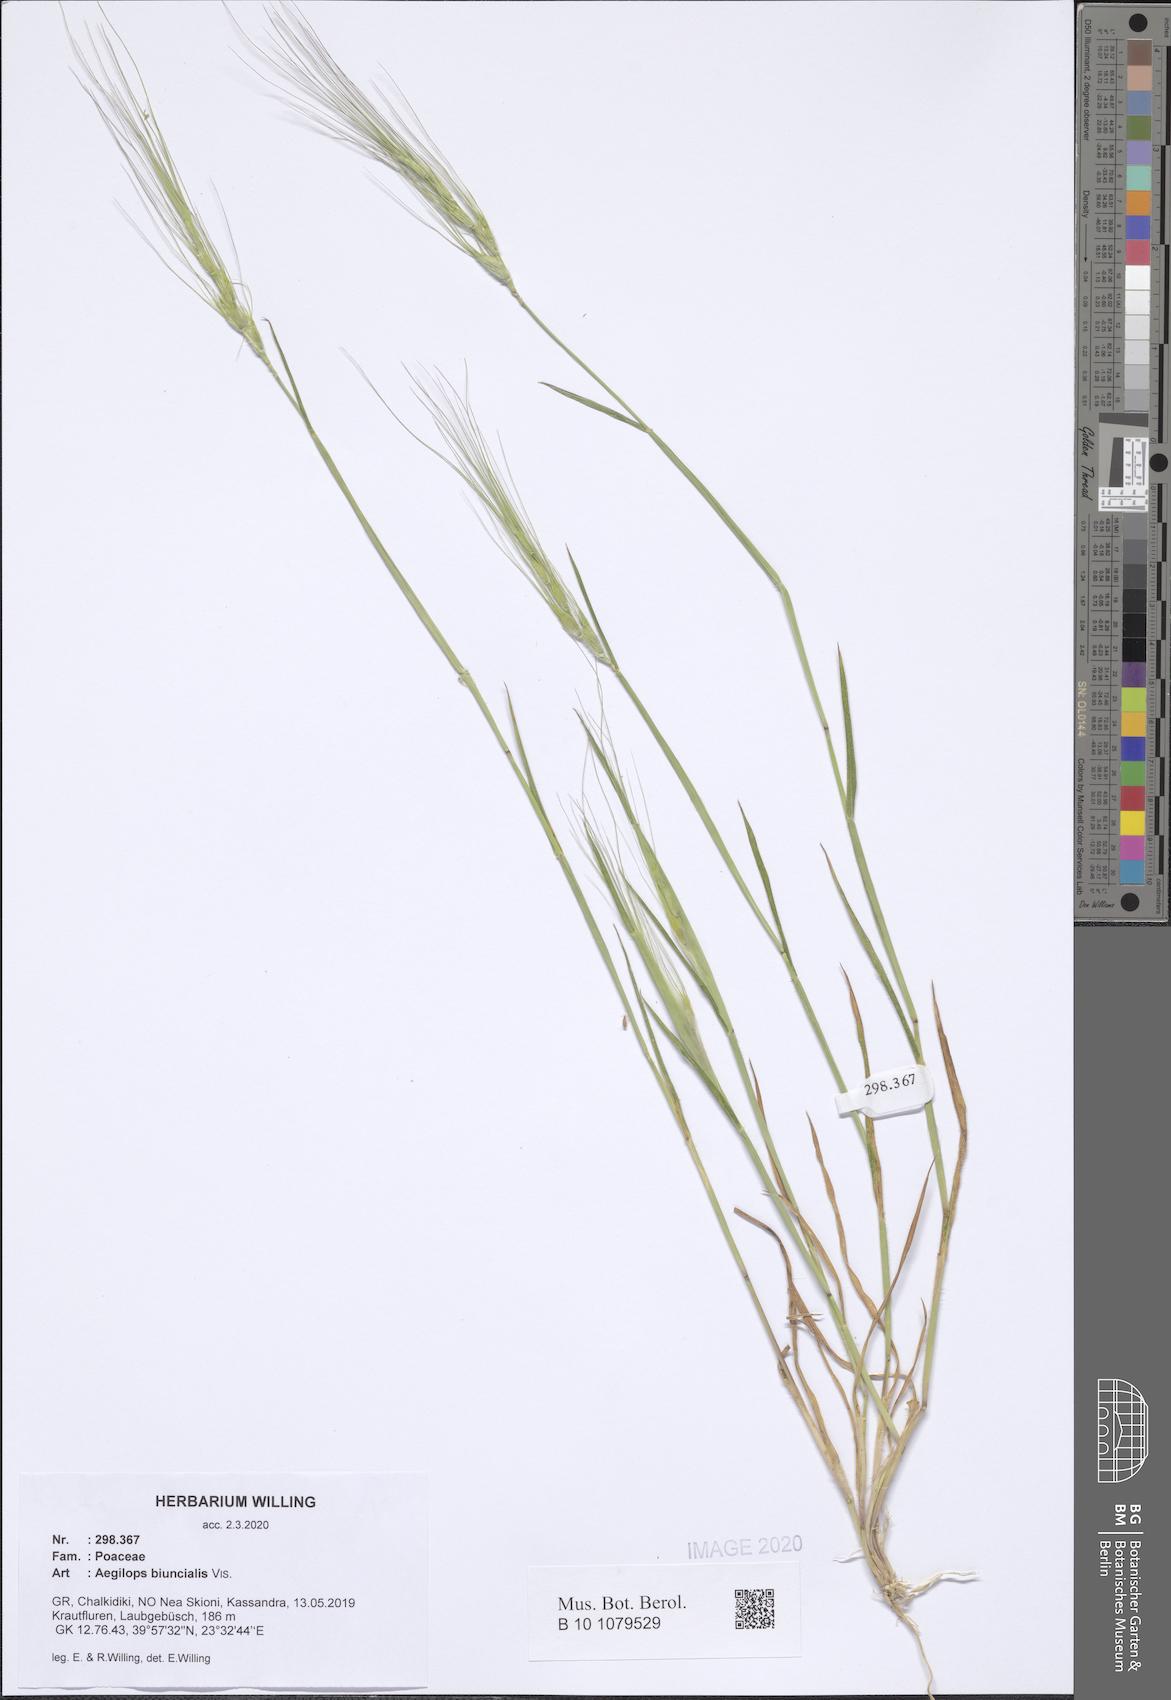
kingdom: Plantae
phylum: Tracheophyta
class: Liliopsida
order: Poales
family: Poaceae
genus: Aegilops
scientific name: Aegilops biuncialis
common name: Mediterranean aegilops
